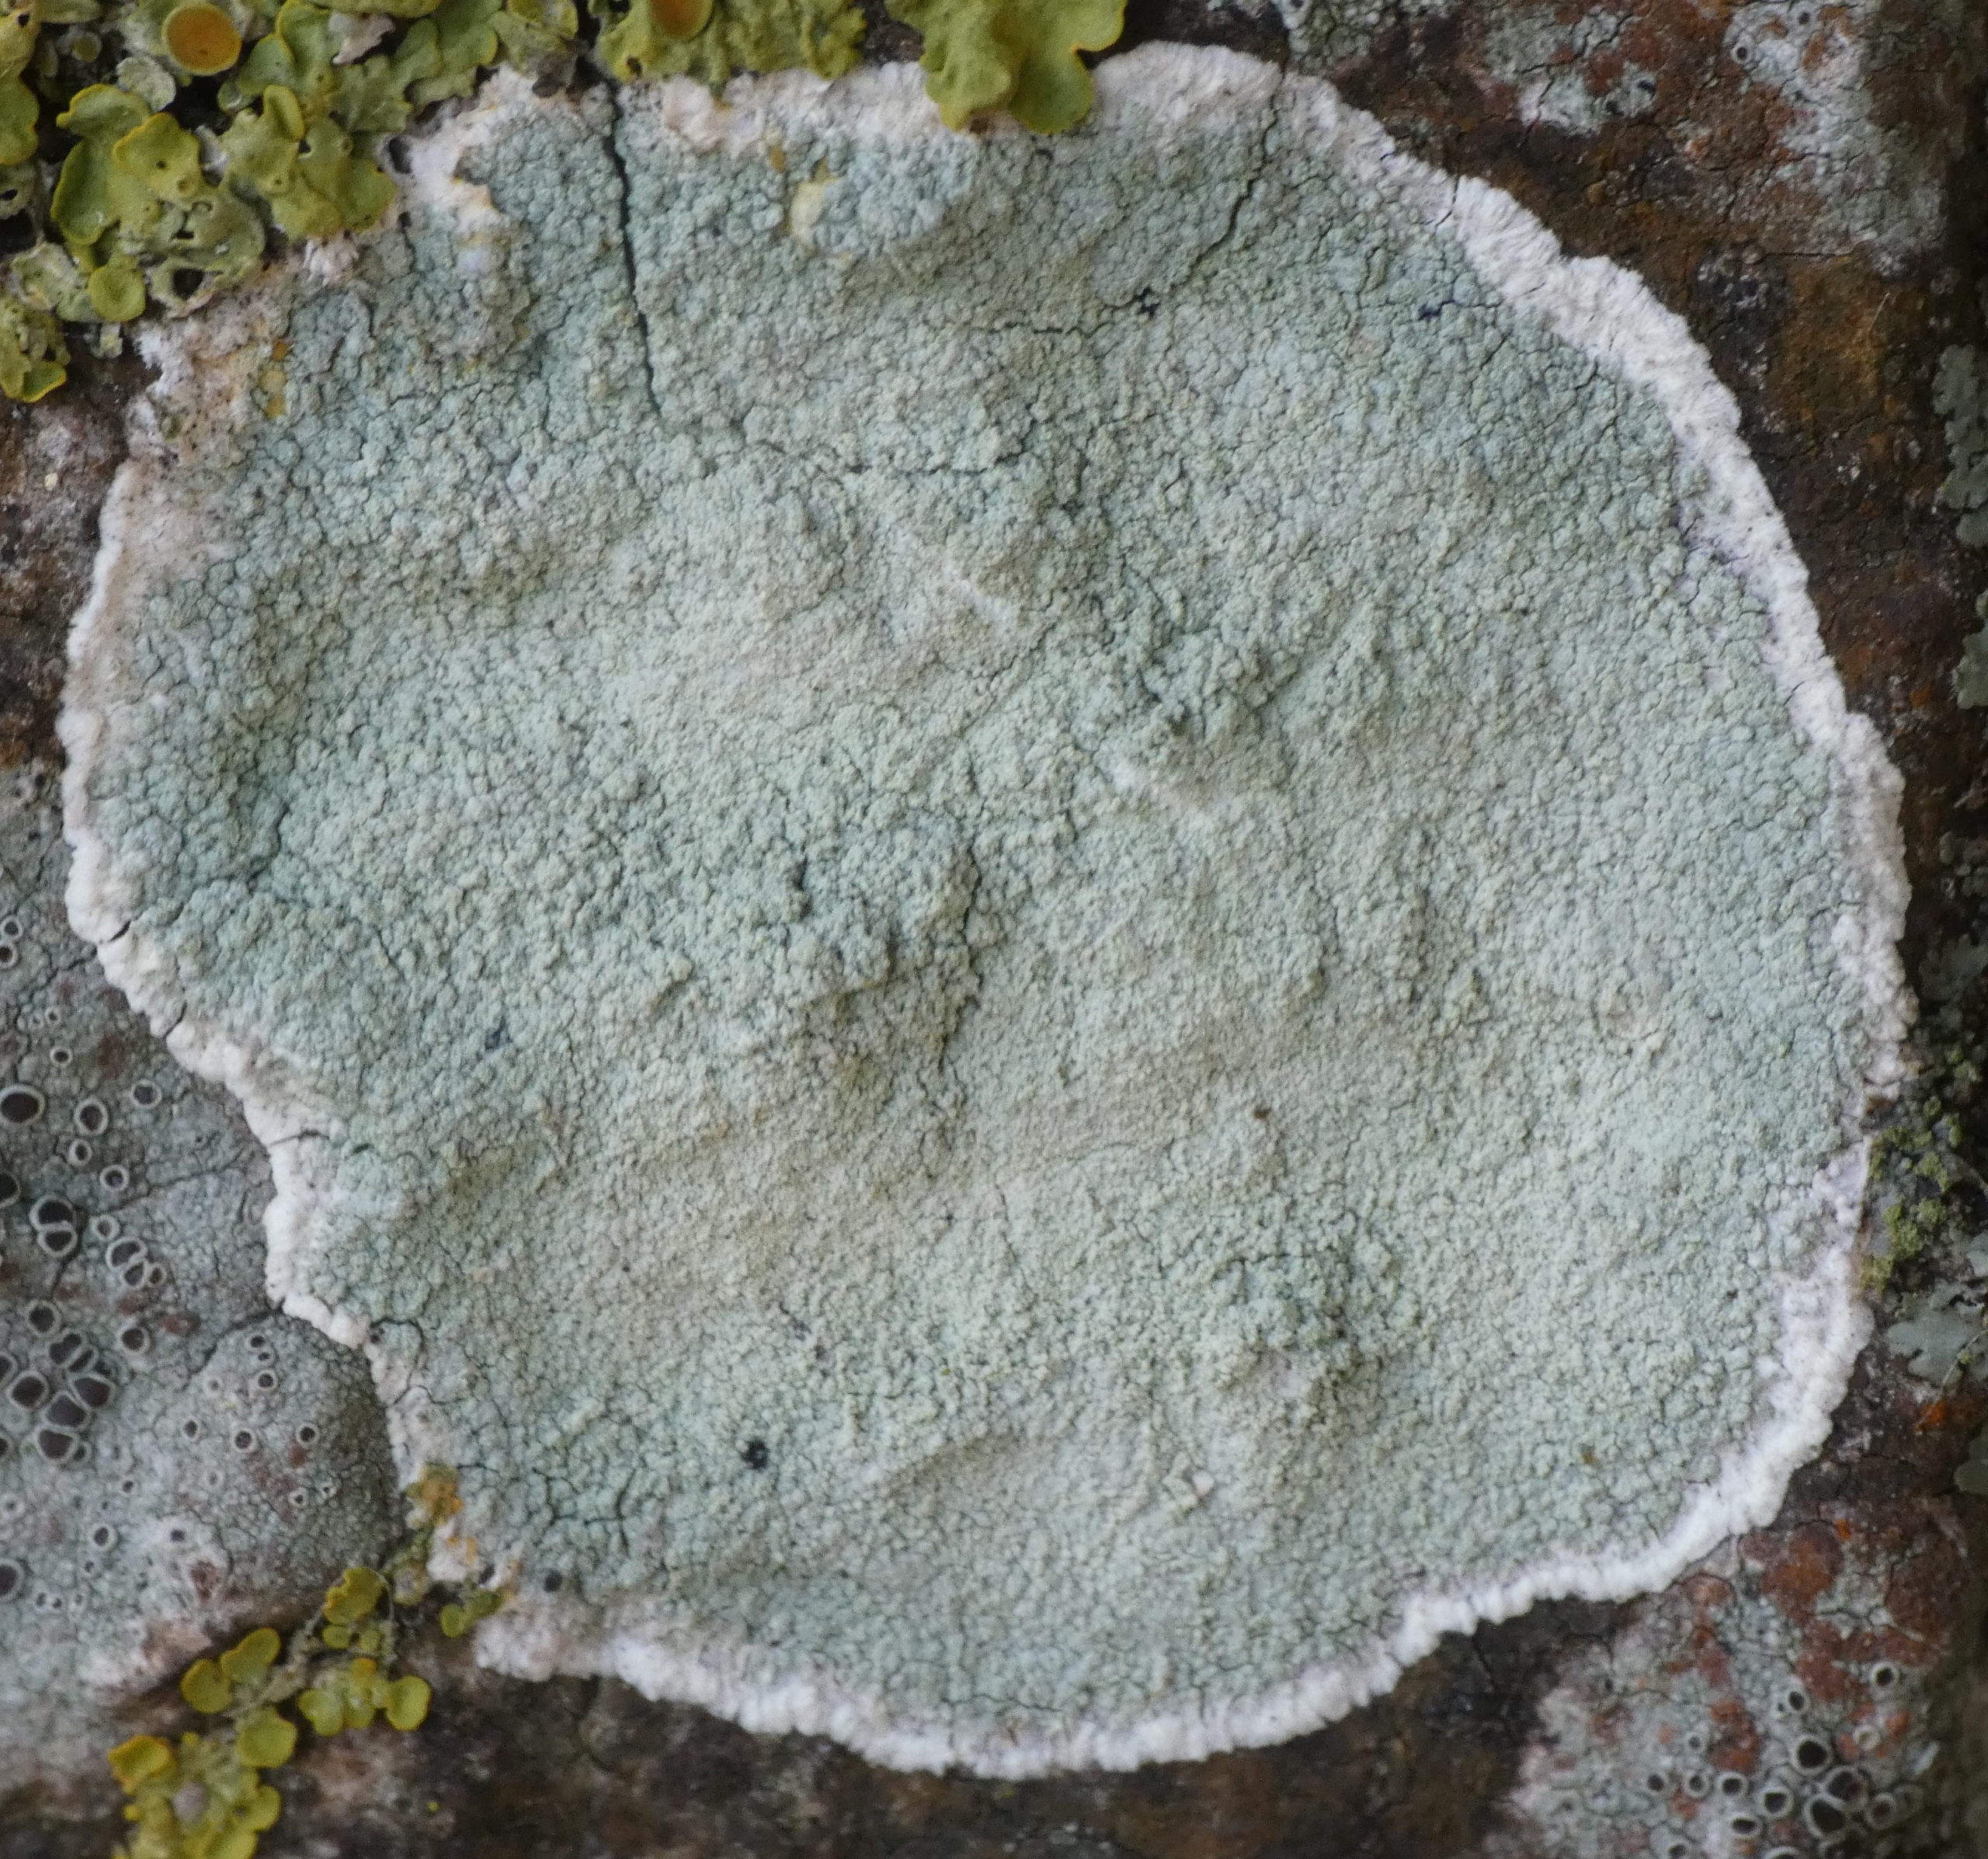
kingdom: Fungi
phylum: Ascomycota
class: Lecanoromycetes
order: Lecanorales
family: Haematommataceae
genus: Haematomma
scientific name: Haematomma ochroleucum
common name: Gul trådkantlav
